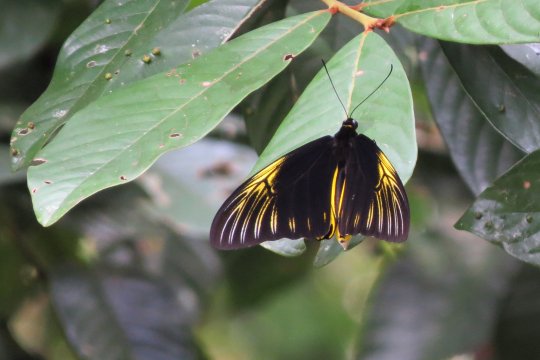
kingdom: Animalia
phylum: Arthropoda
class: Insecta
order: Lepidoptera
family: Papilionidae
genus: Troides
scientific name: Troides amphrysus
